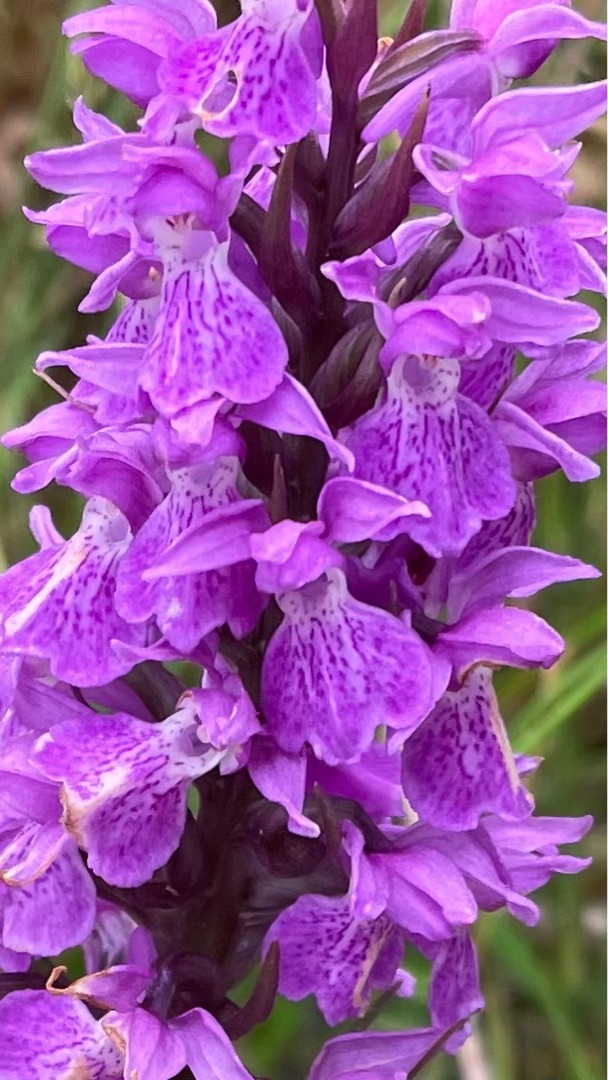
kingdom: Plantae
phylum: Tracheophyta
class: Liliopsida
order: Asparagales
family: Orchidaceae
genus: Dactylorhiza
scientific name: Dactylorhiza majalis
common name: Priklæbet gøgeurt
